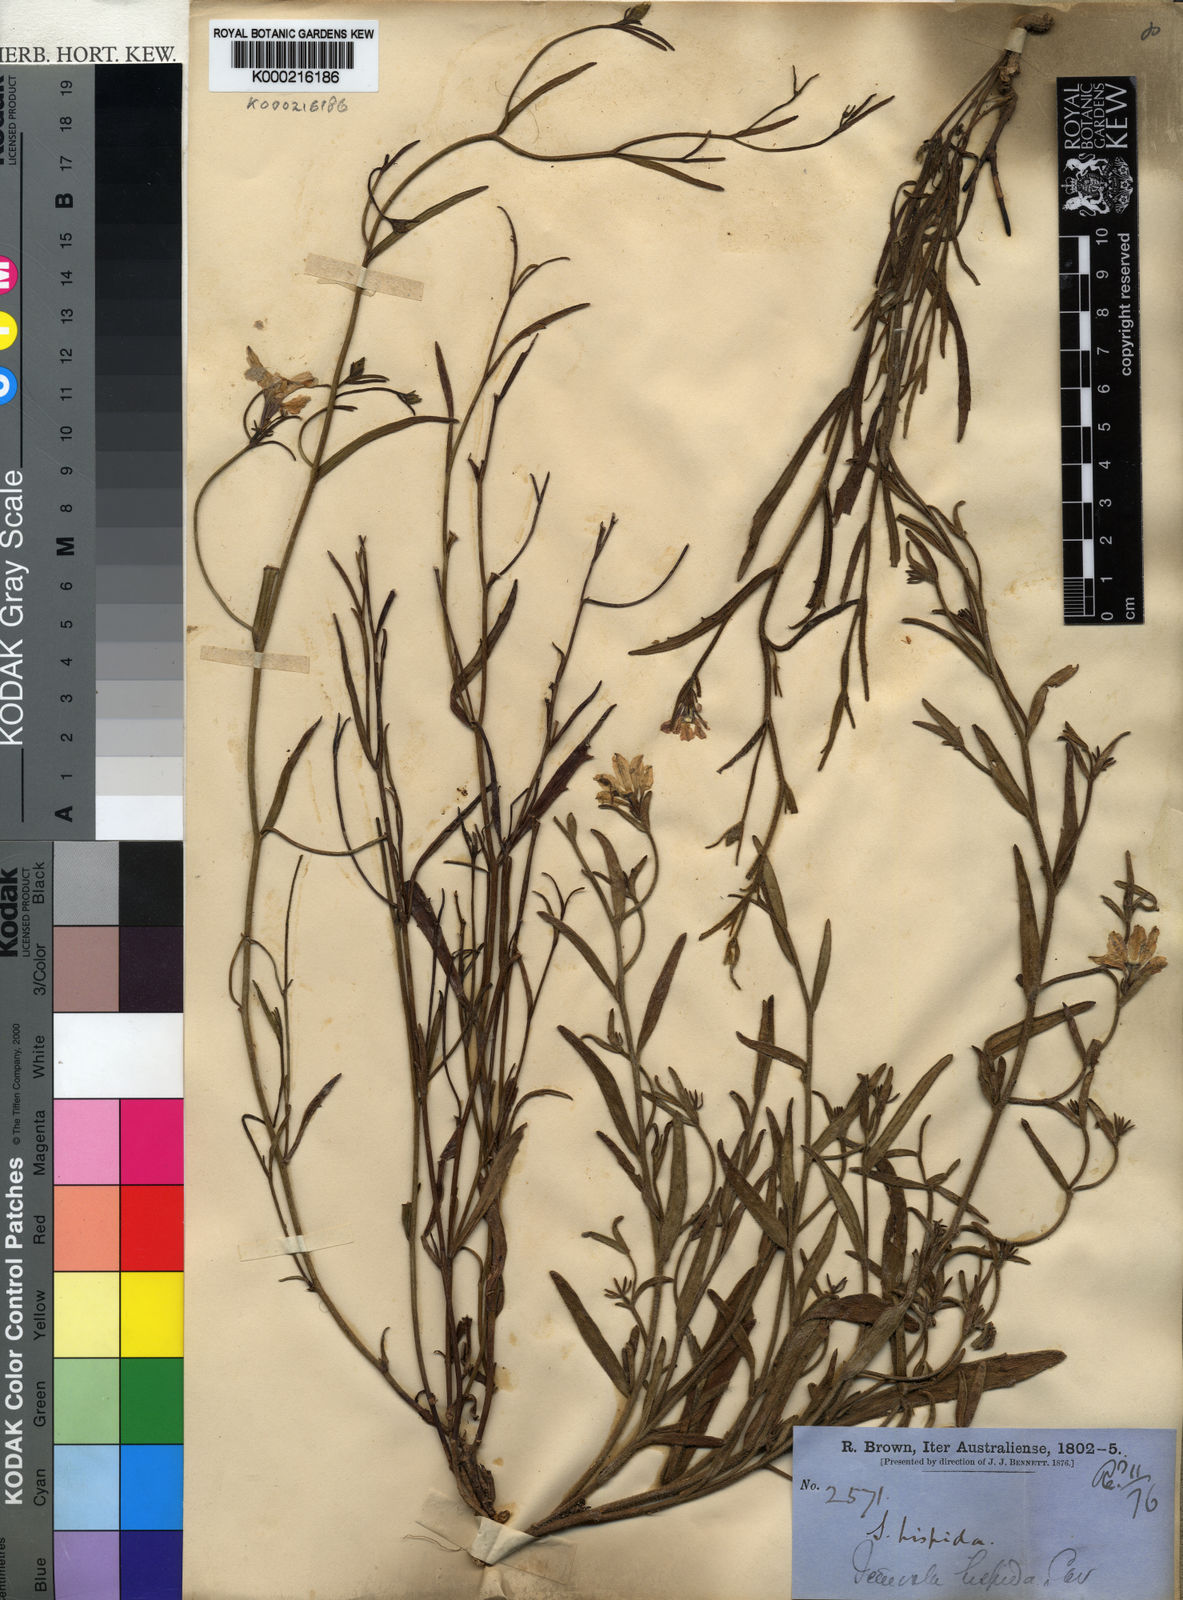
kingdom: Plantae
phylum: Tracheophyta
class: Magnoliopsida
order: Asterales
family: Goodeniaceae
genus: Scaevola
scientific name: Scaevola
